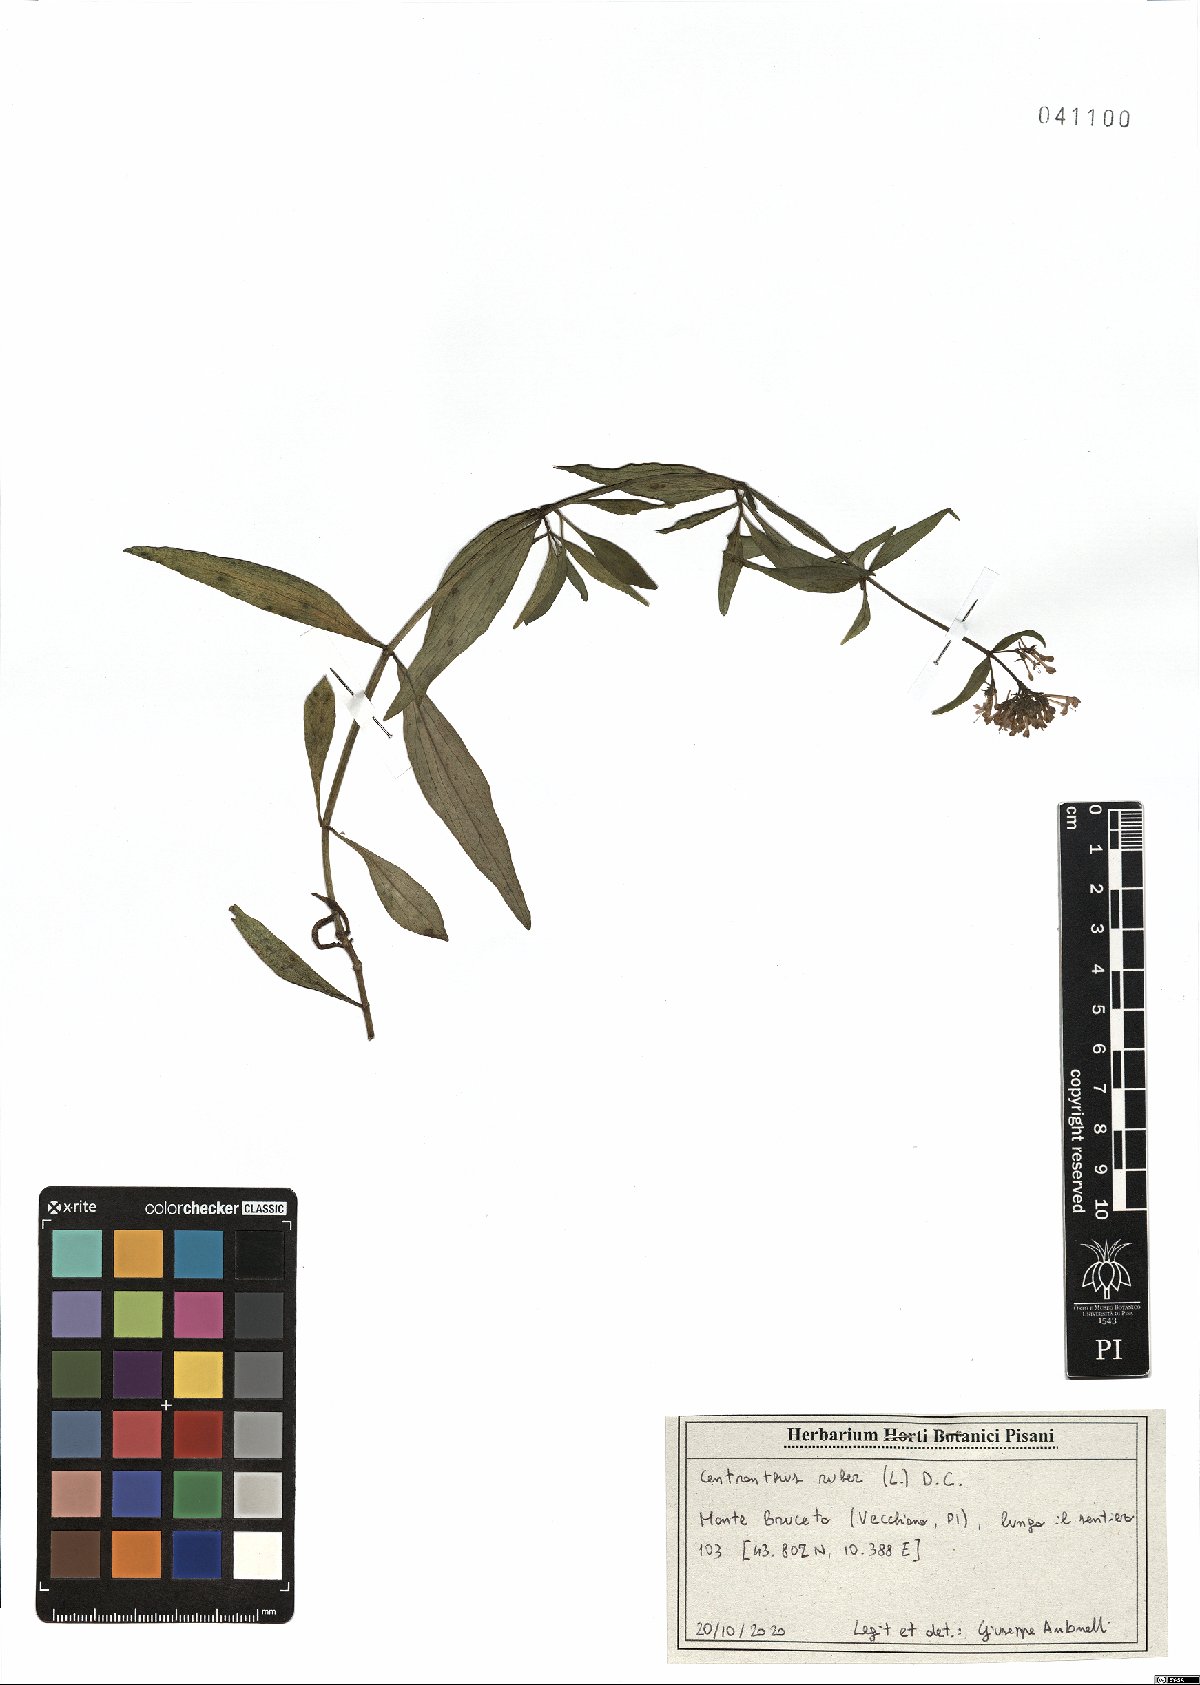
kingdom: Plantae
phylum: Tracheophyta
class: Magnoliopsida
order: Dipsacales
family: Caprifoliaceae
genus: Centranthus
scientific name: Centranthus ruber
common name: Red valerian
